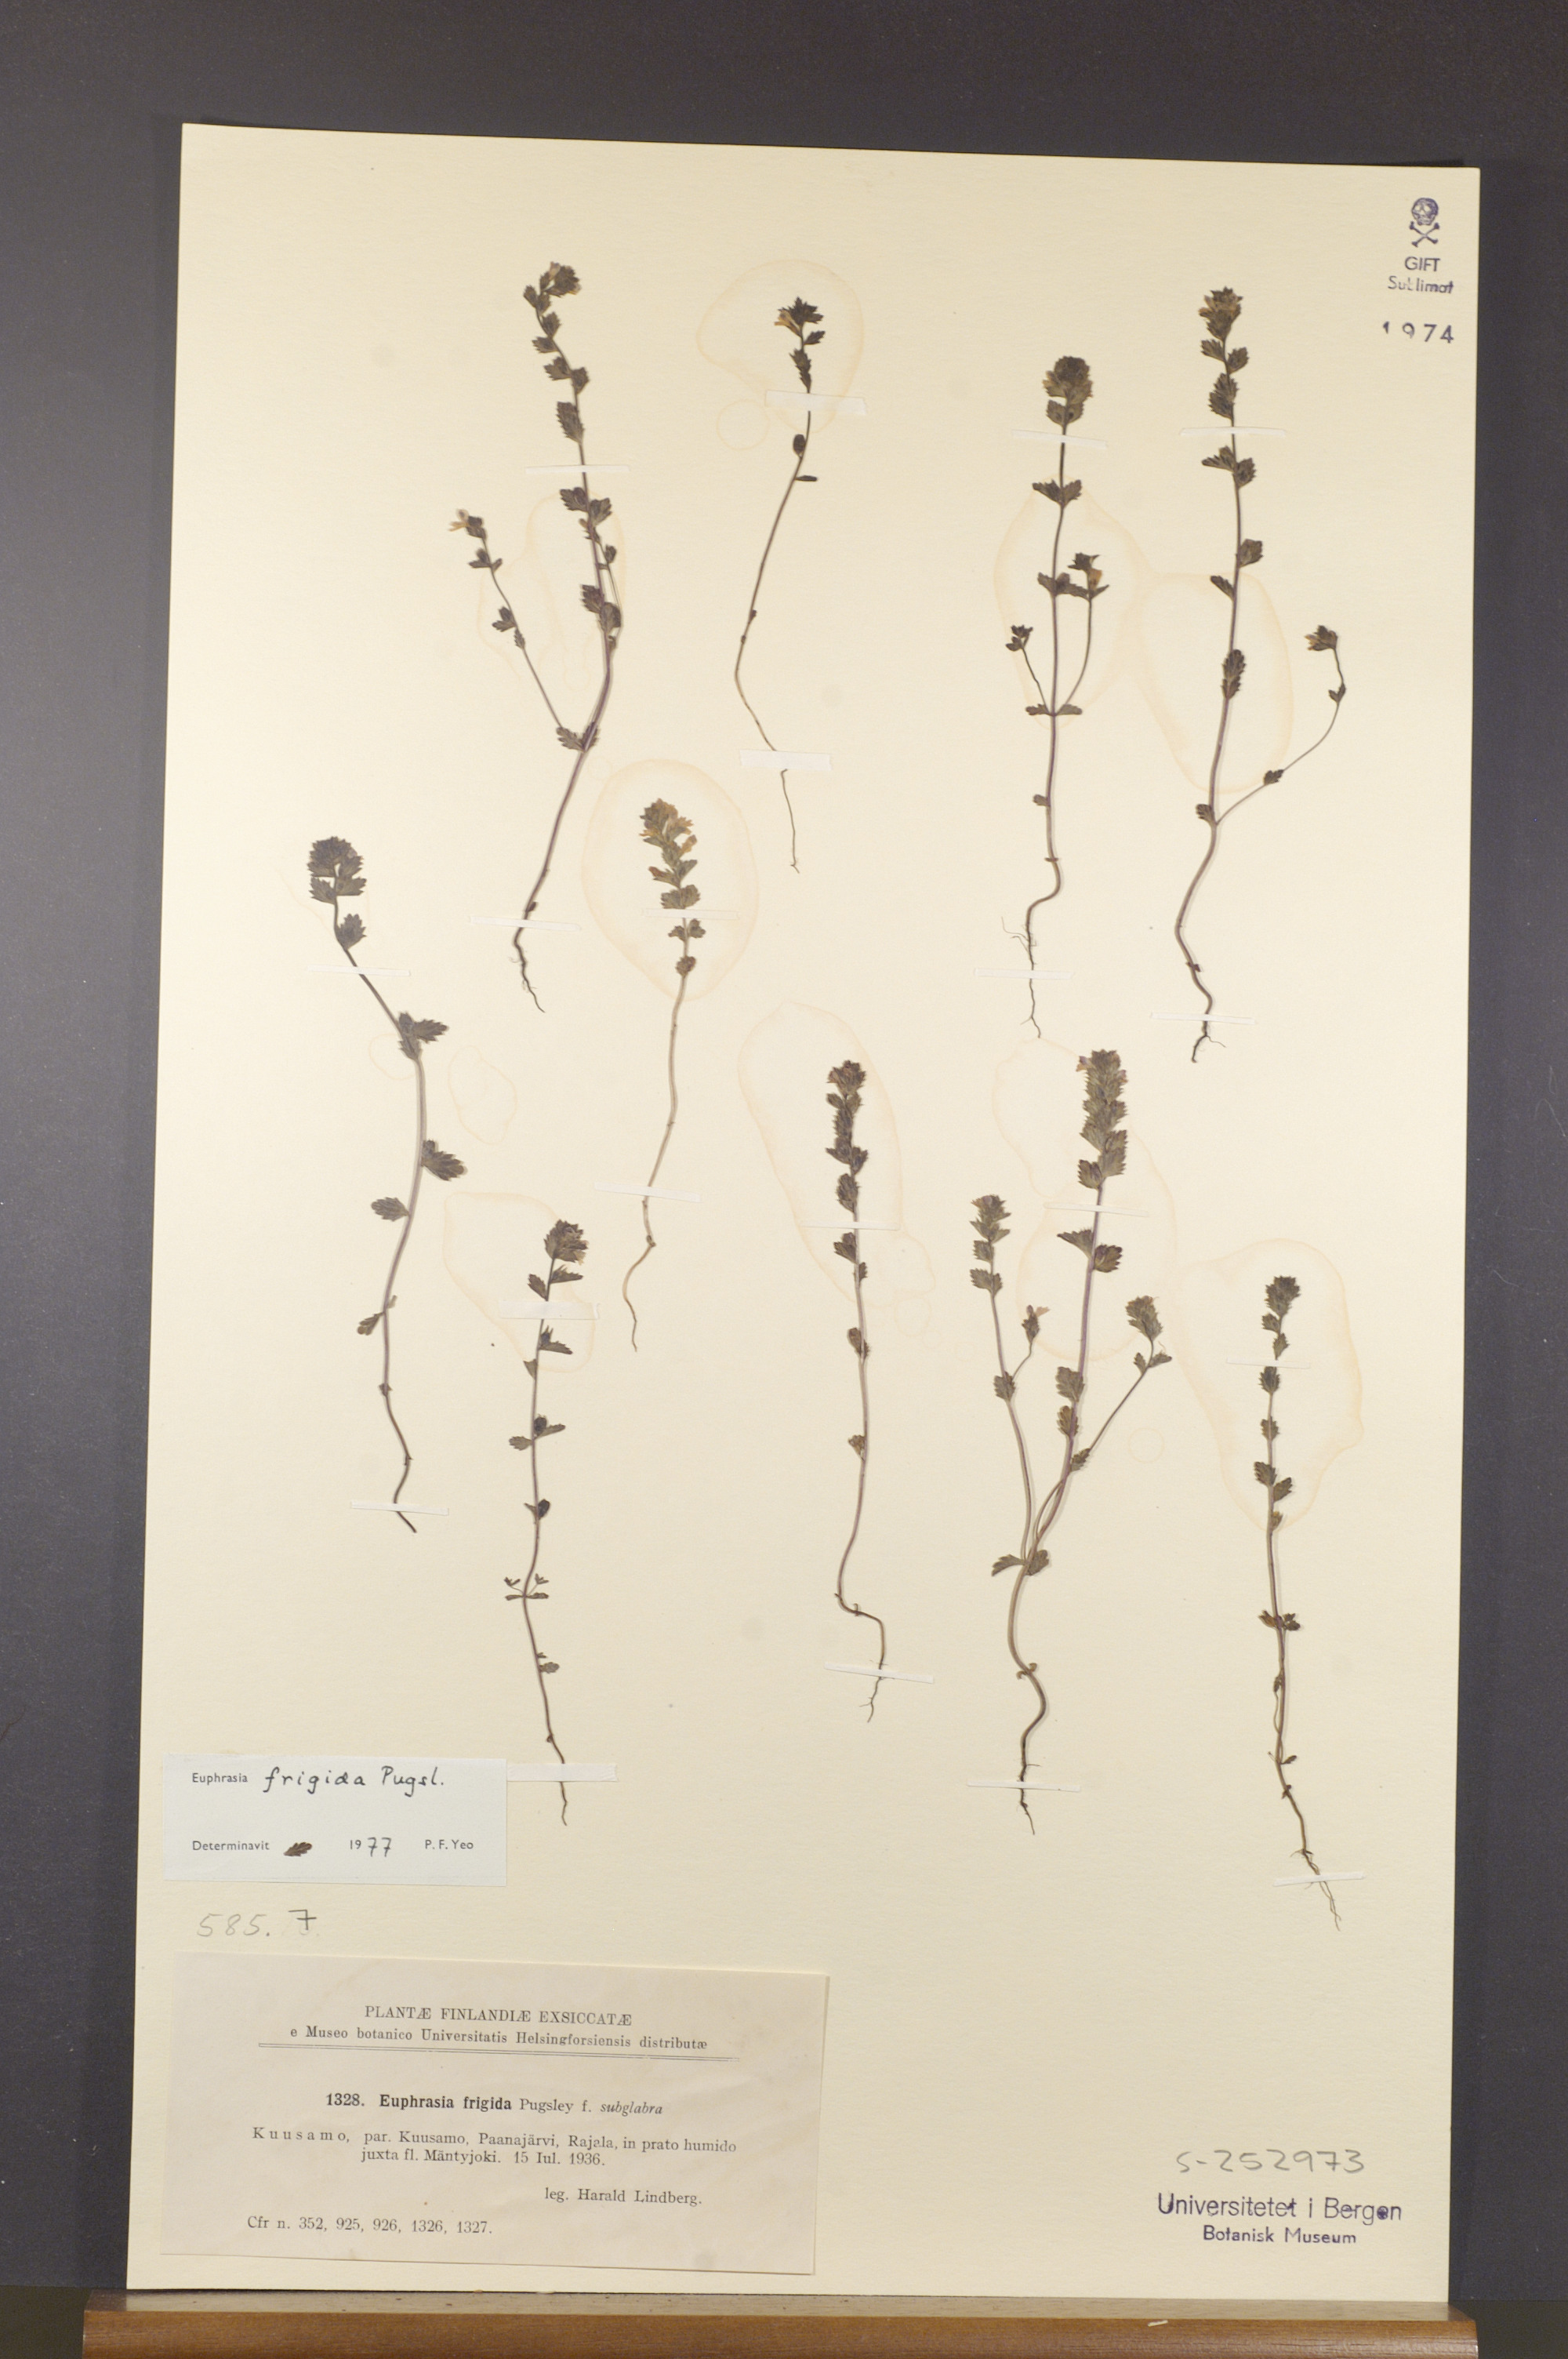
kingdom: Plantae
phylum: Tracheophyta
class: Magnoliopsida
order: Lamiales
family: Orobanchaceae
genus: Euphrasia
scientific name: Euphrasia frigida
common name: An eyebright
